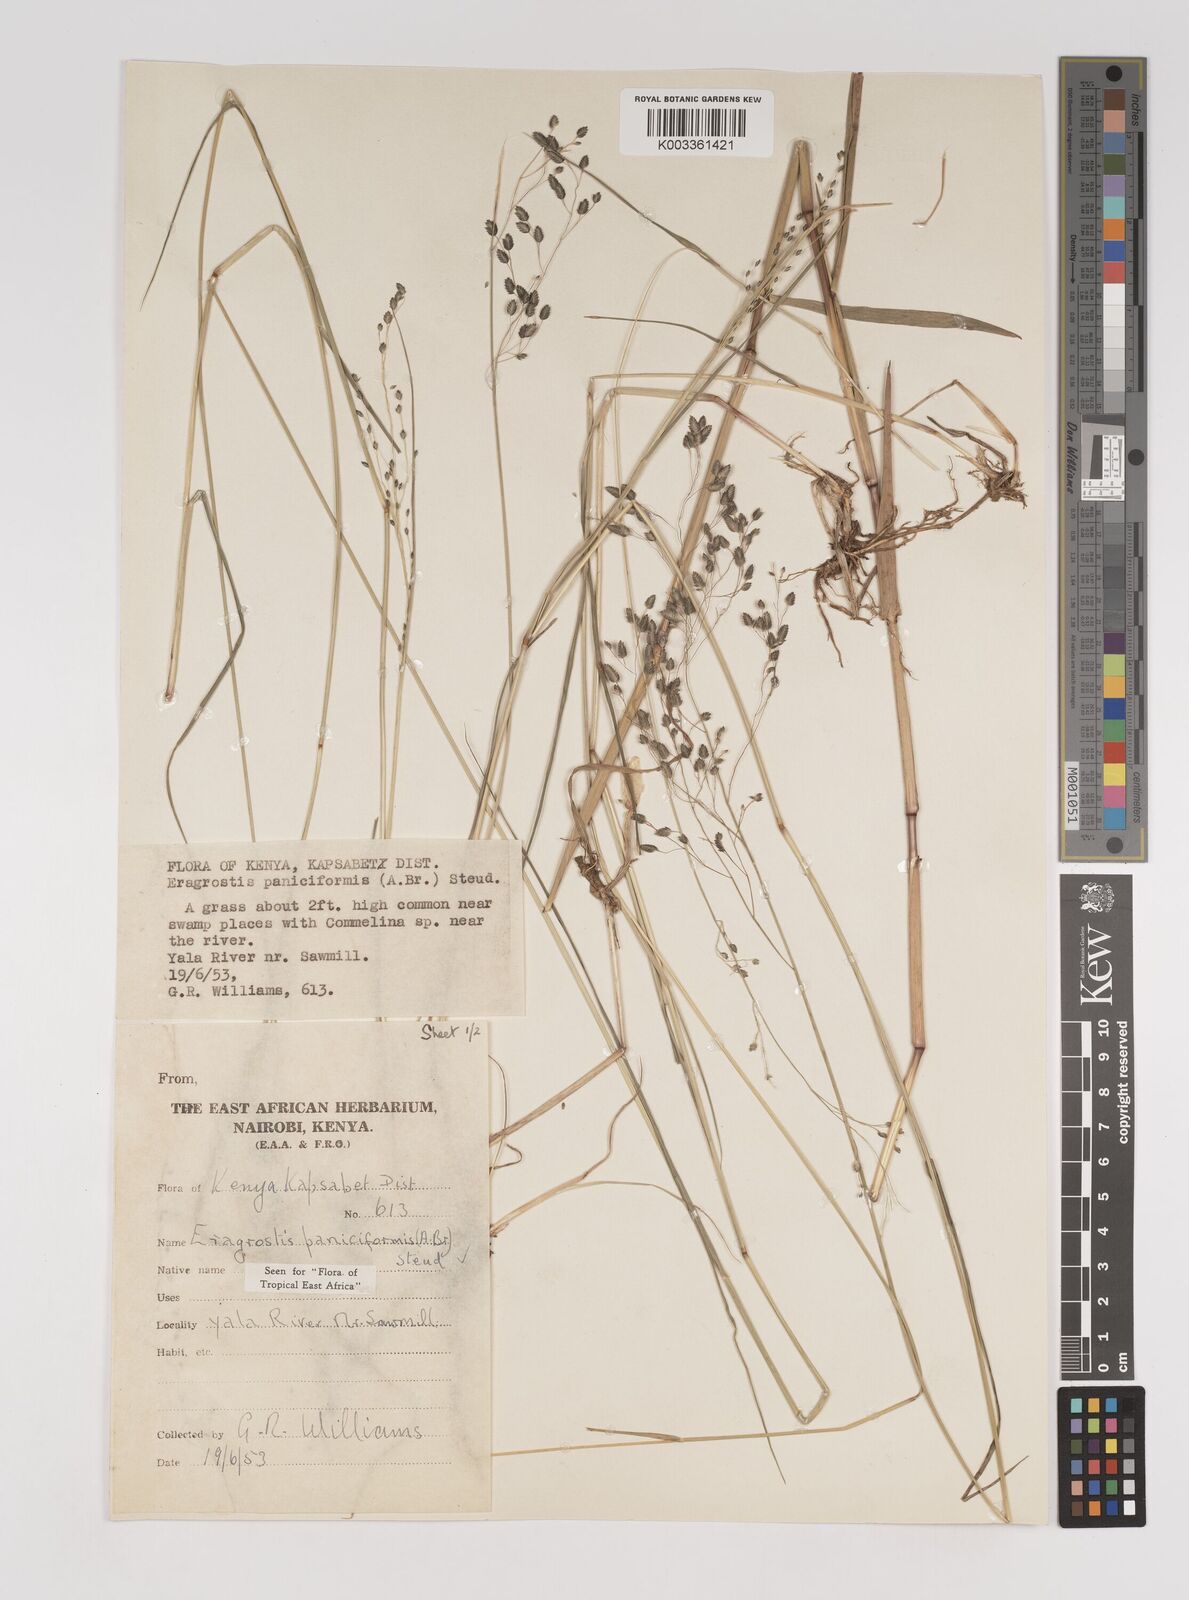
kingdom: Plantae
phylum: Tracheophyta
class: Liliopsida
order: Poales
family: Poaceae
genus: Eragrostis
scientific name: Eragrostis paniciformis
